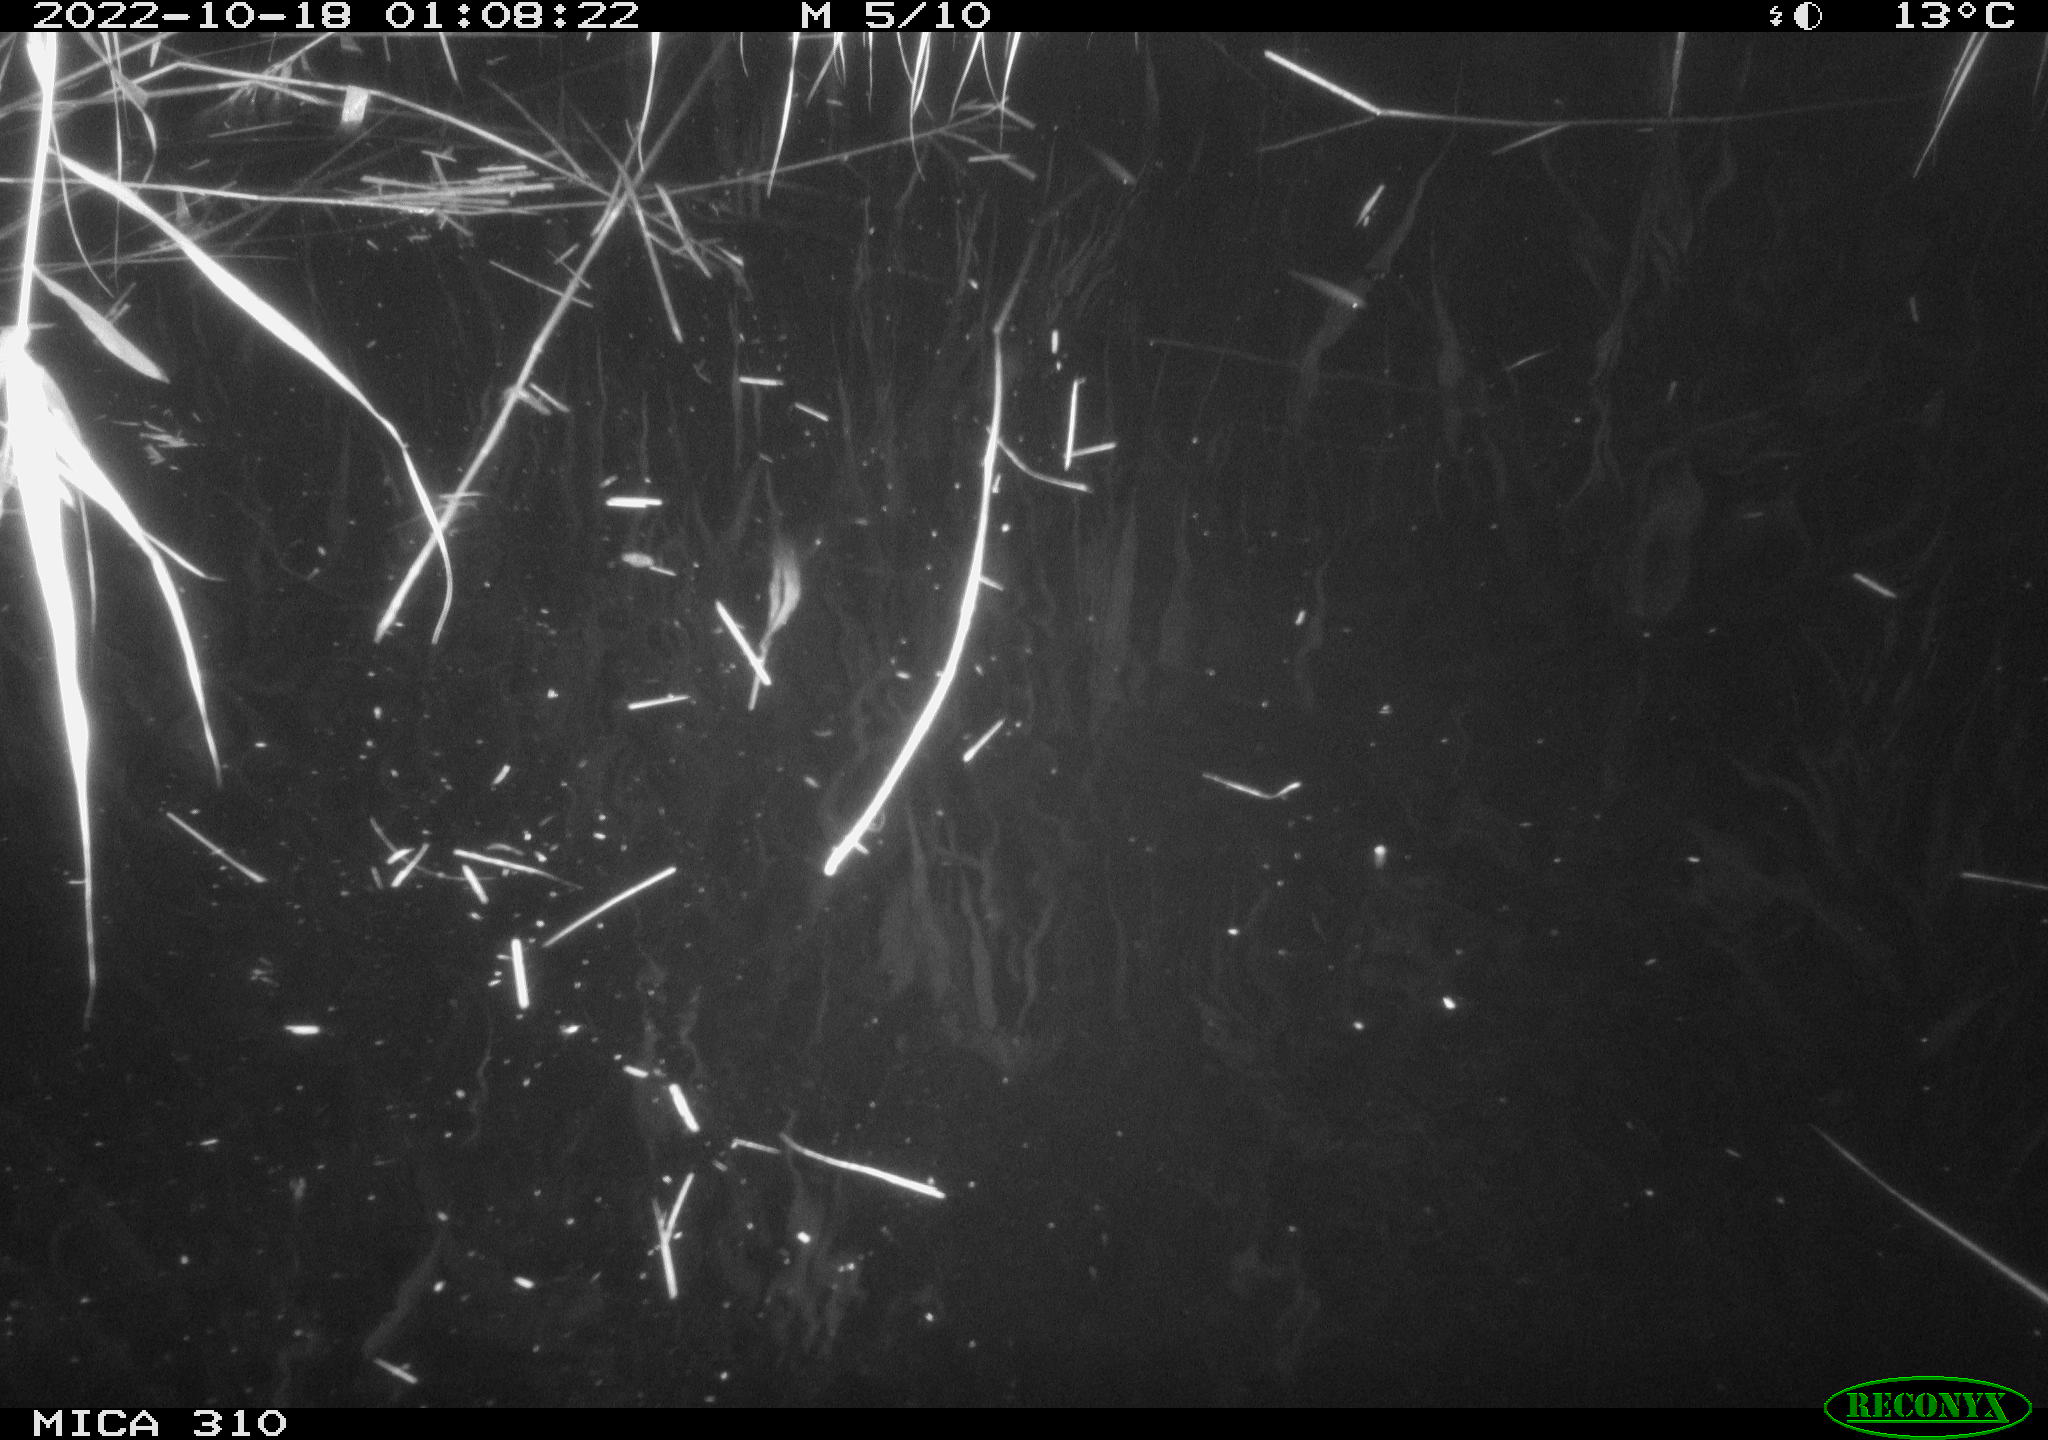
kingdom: Animalia
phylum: Chordata
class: Mammalia
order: Rodentia
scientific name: Rodentia
